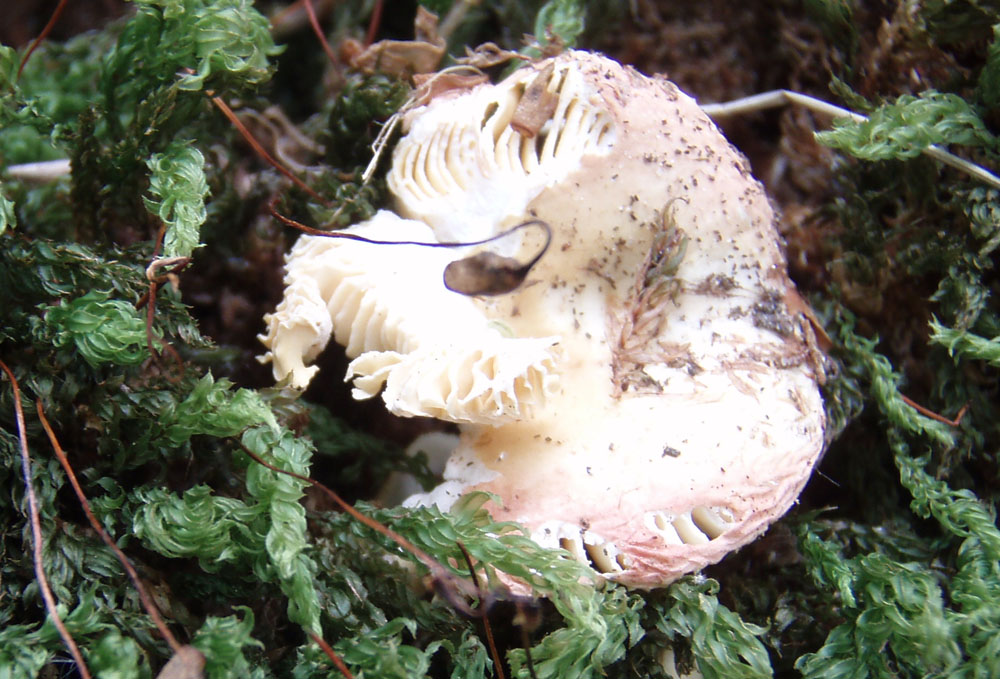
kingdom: Fungi
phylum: Basidiomycota
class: Agaricomycetes
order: Russulales
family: Russulaceae
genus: Russula
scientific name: Russula risigallina
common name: abrikos-skørhat
